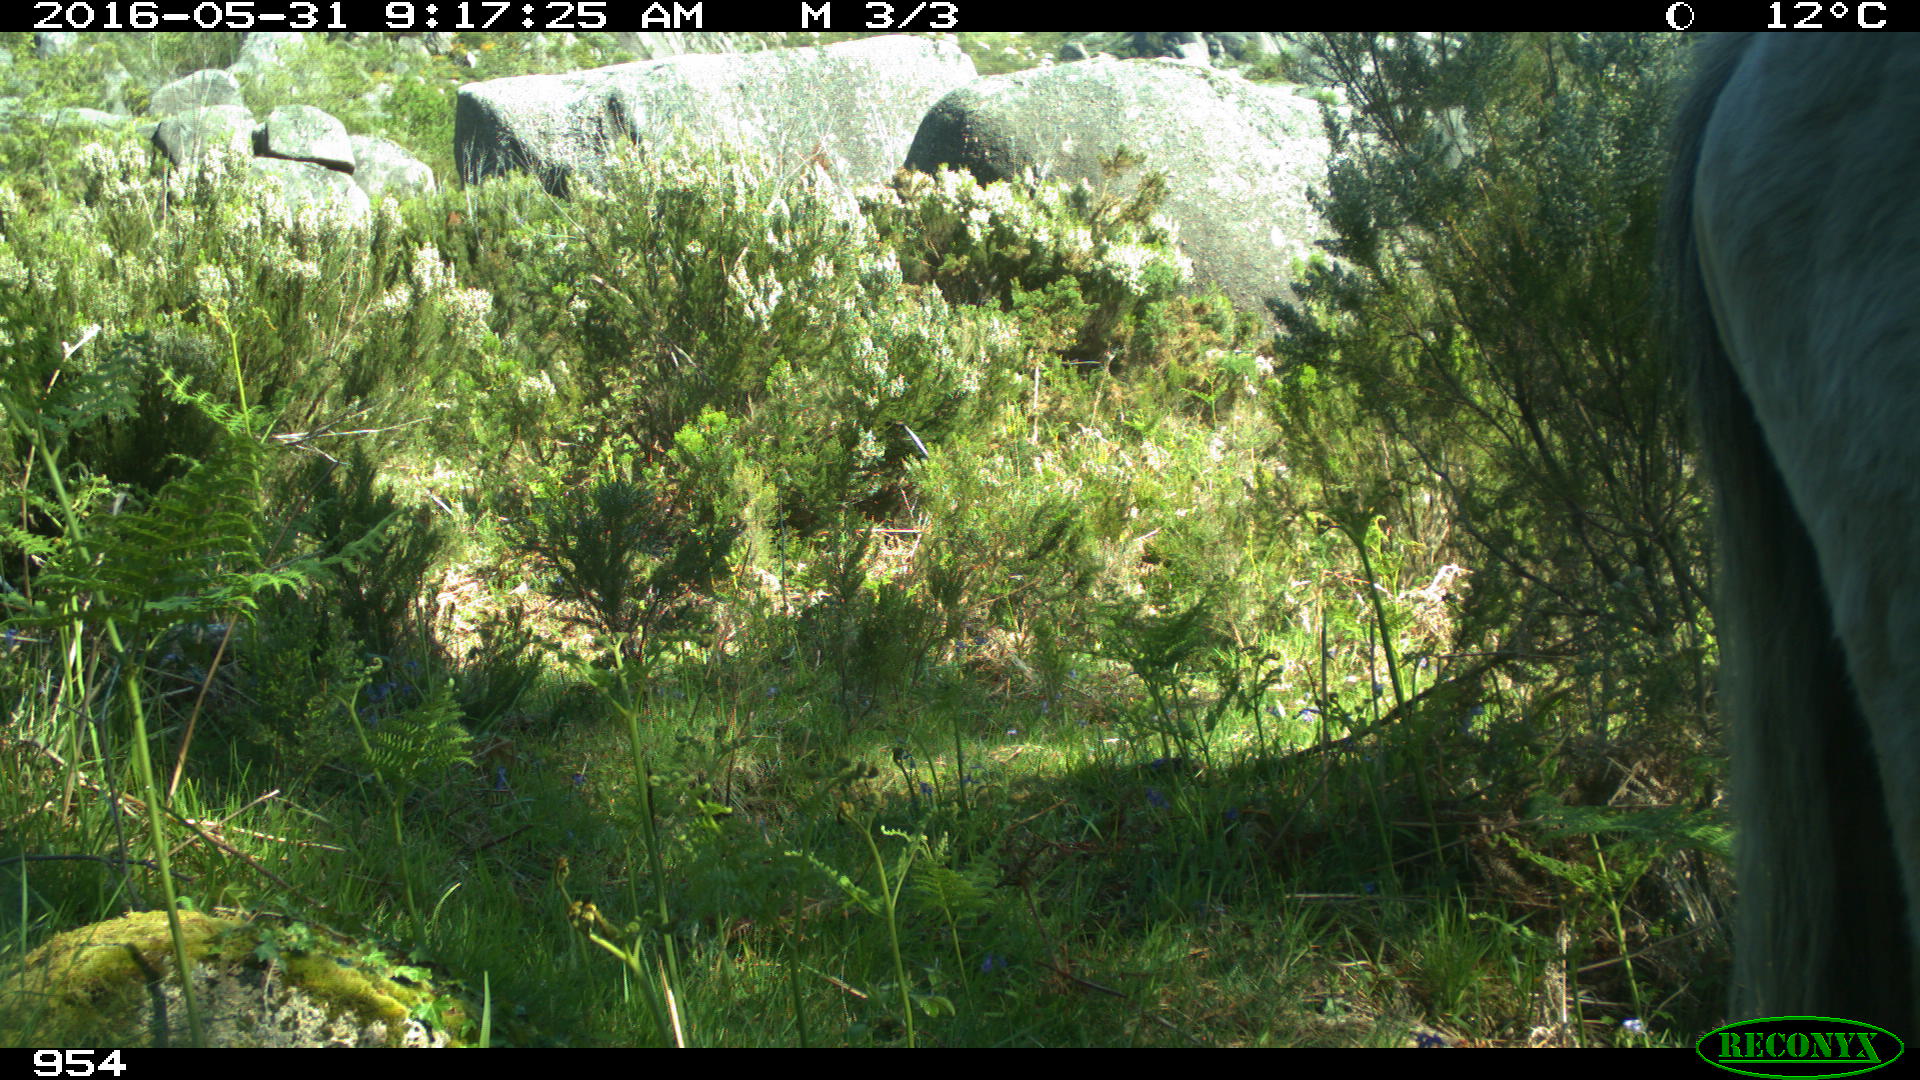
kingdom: Animalia
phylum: Chordata
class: Mammalia
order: Perissodactyla
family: Equidae
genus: Equus
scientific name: Equus caballus
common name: Horse
